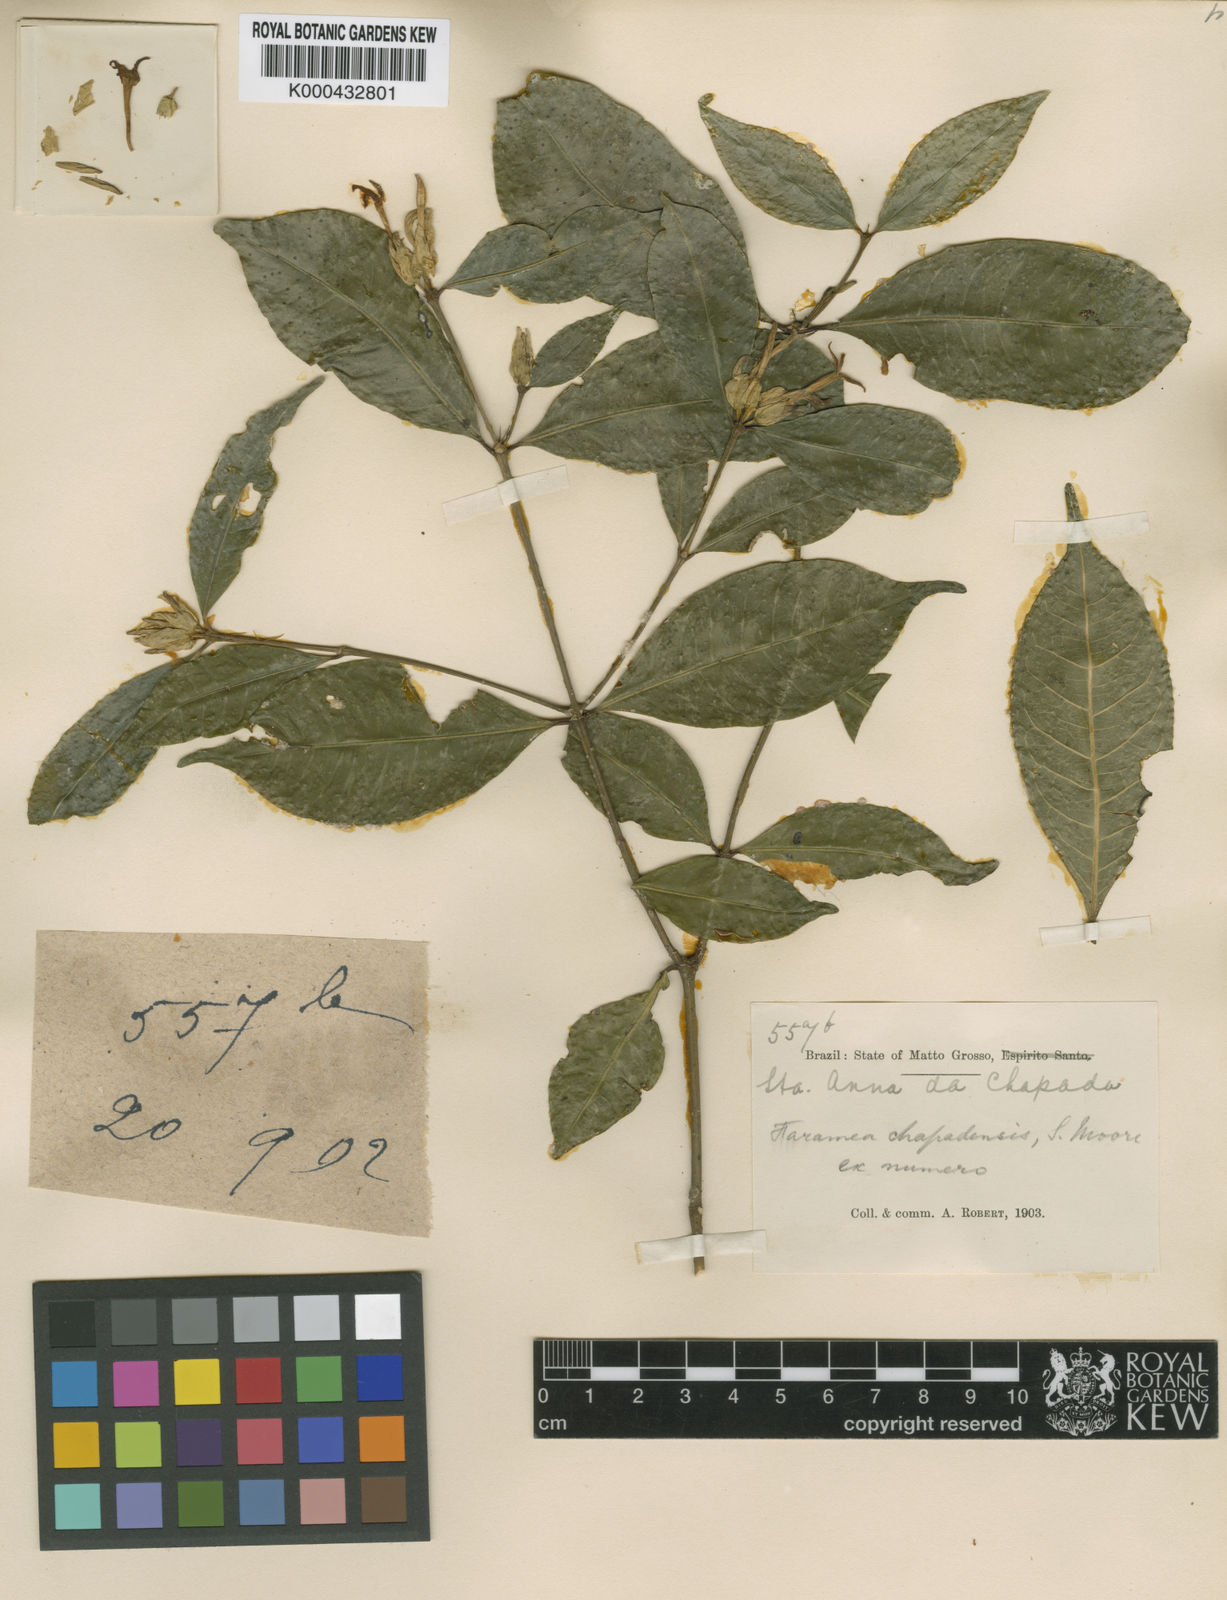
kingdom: Plantae
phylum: Tracheophyta
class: Magnoliopsida
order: Gentianales
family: Rubiaceae
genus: Faramea
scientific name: Faramea chapadensis
